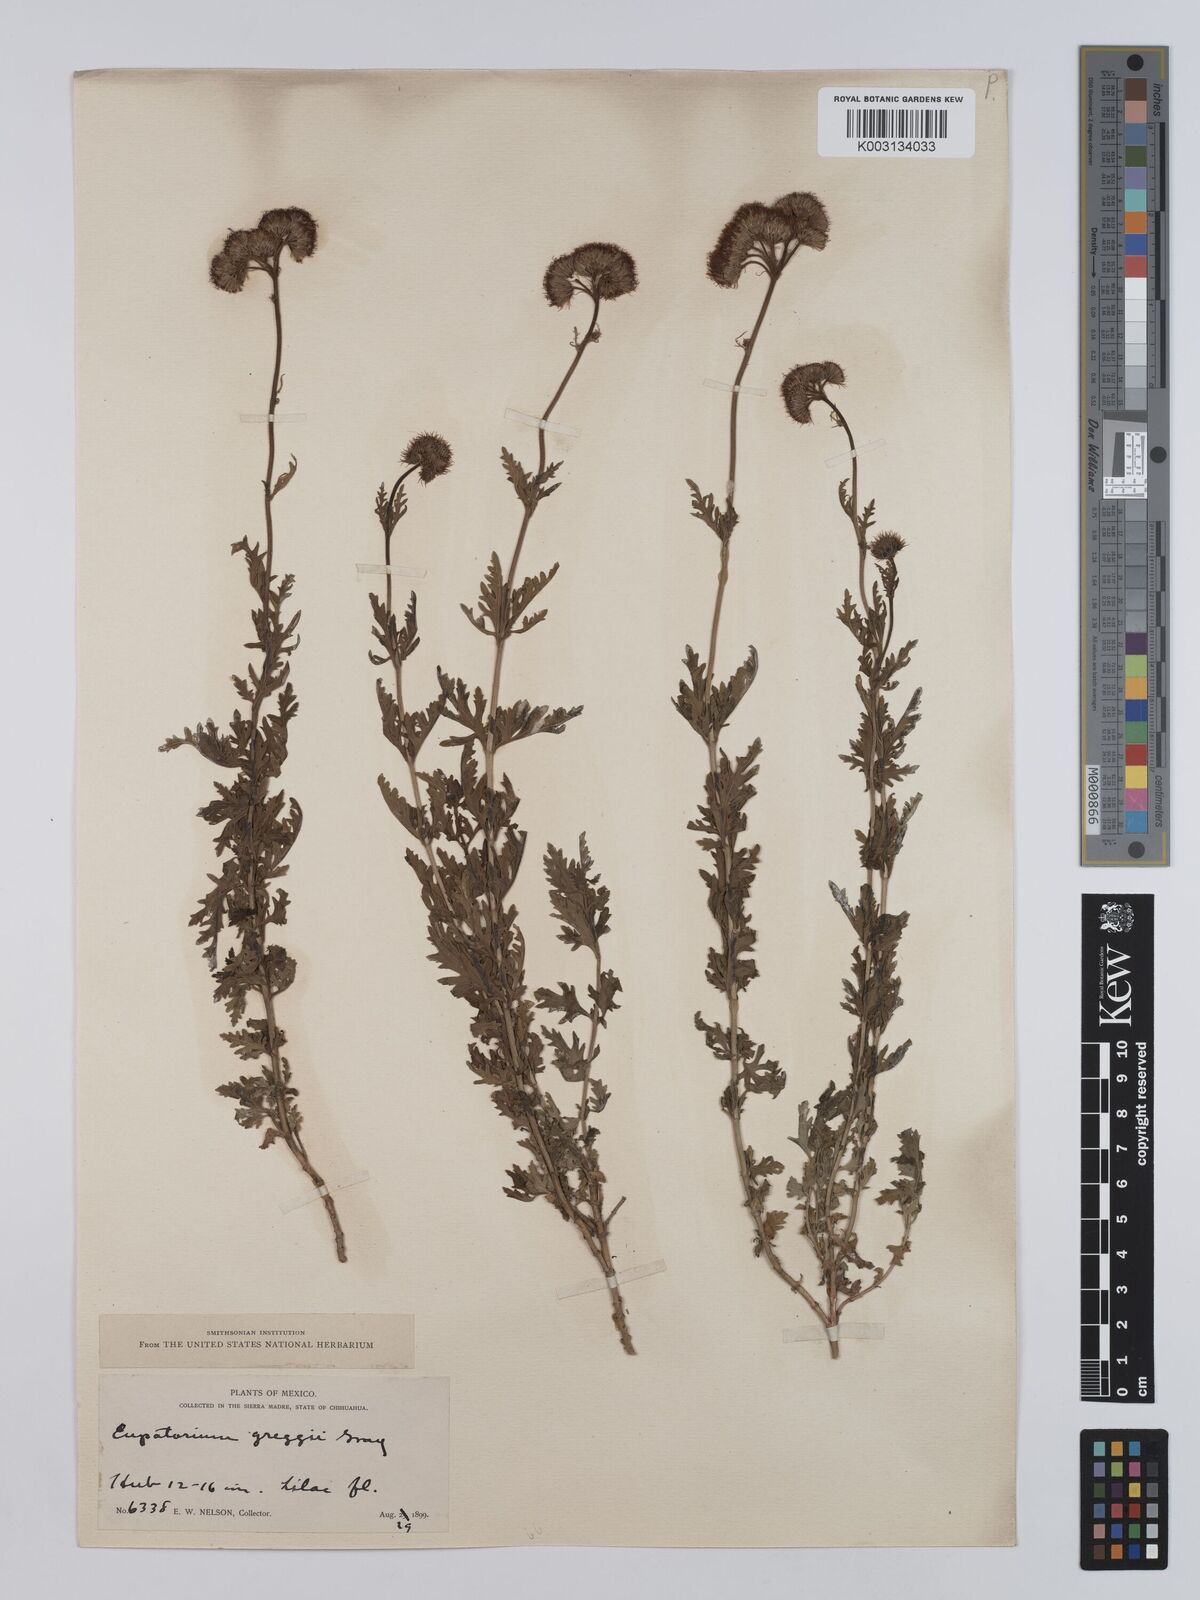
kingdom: Plantae
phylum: Tracheophyta
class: Magnoliopsida
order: Asterales
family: Asteraceae
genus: Conoclinium
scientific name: Conoclinium dissectum
